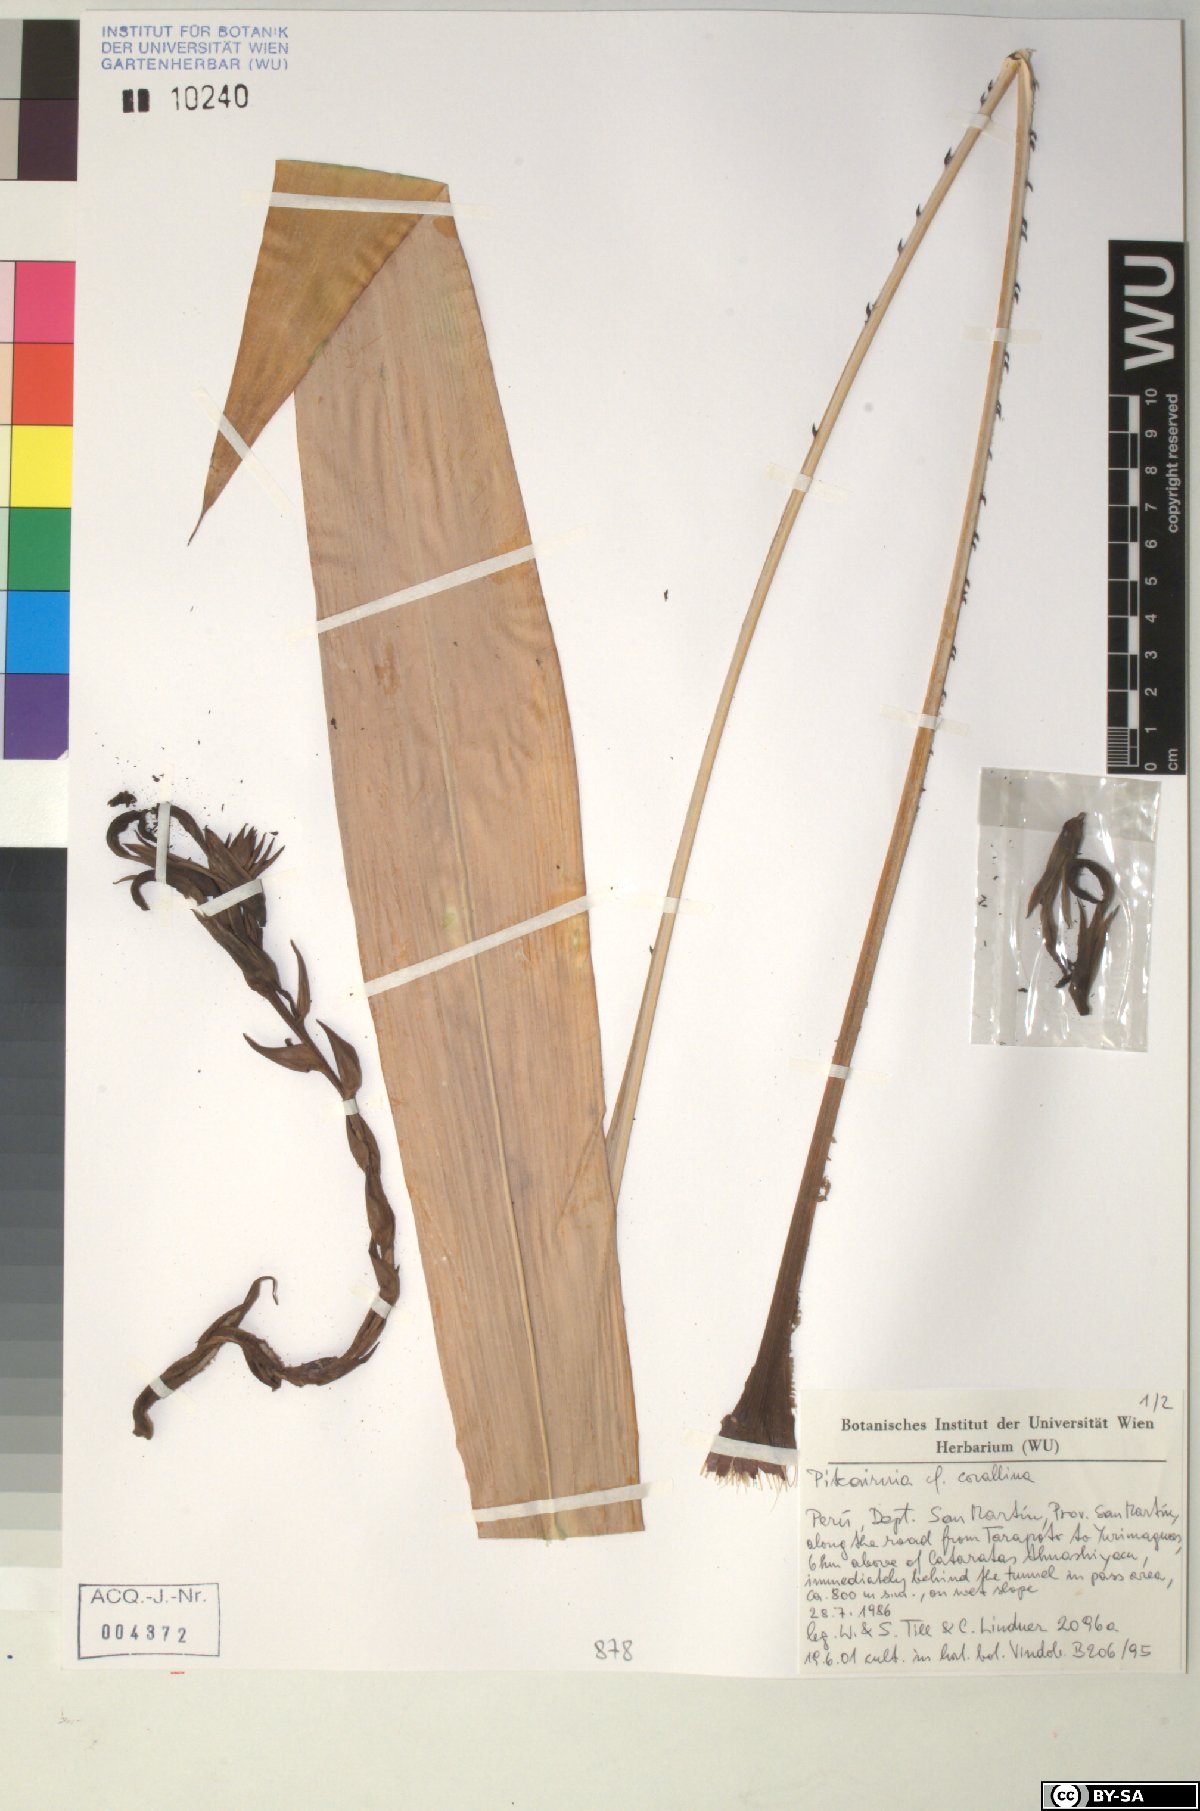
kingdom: Plantae
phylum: Tracheophyta
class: Liliopsida
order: Poales
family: Bromeliaceae
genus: Pitcairnia
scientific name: Pitcairnia corallina
